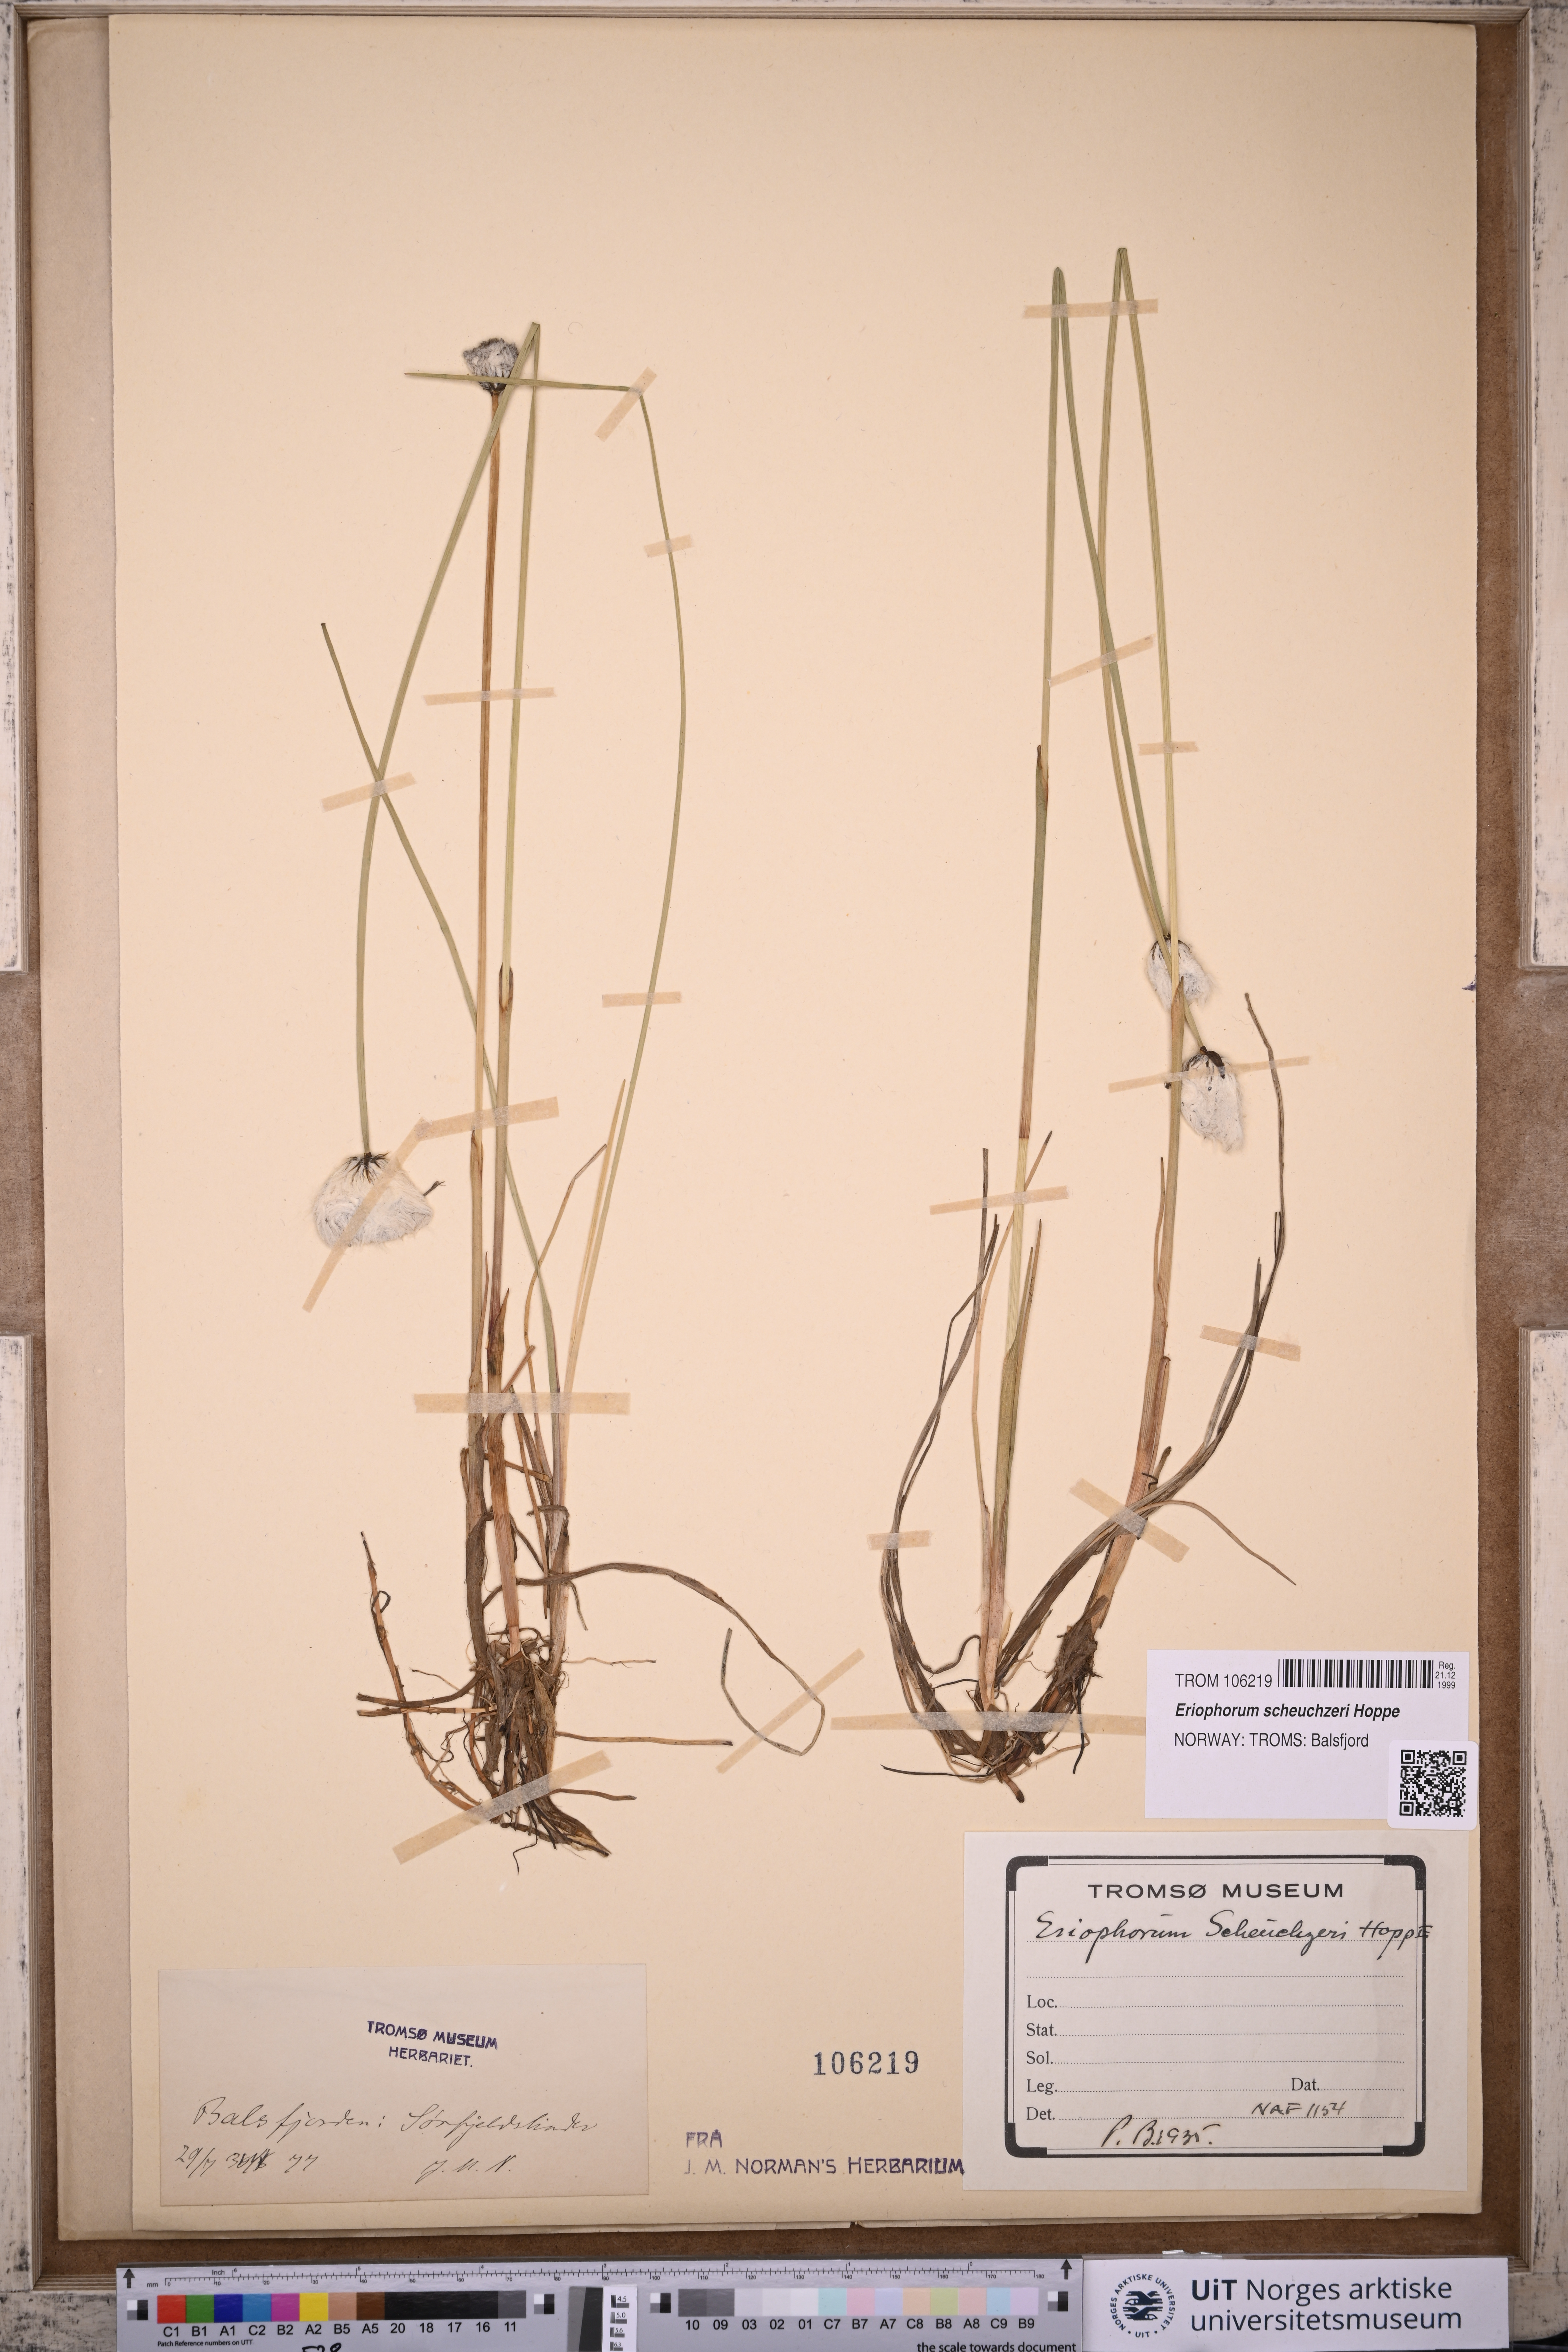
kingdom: Plantae
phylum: Tracheophyta
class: Liliopsida
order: Poales
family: Cyperaceae
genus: Eriophorum
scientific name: Eriophorum scheuchzeri
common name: Scheuchzer's cottongrass
